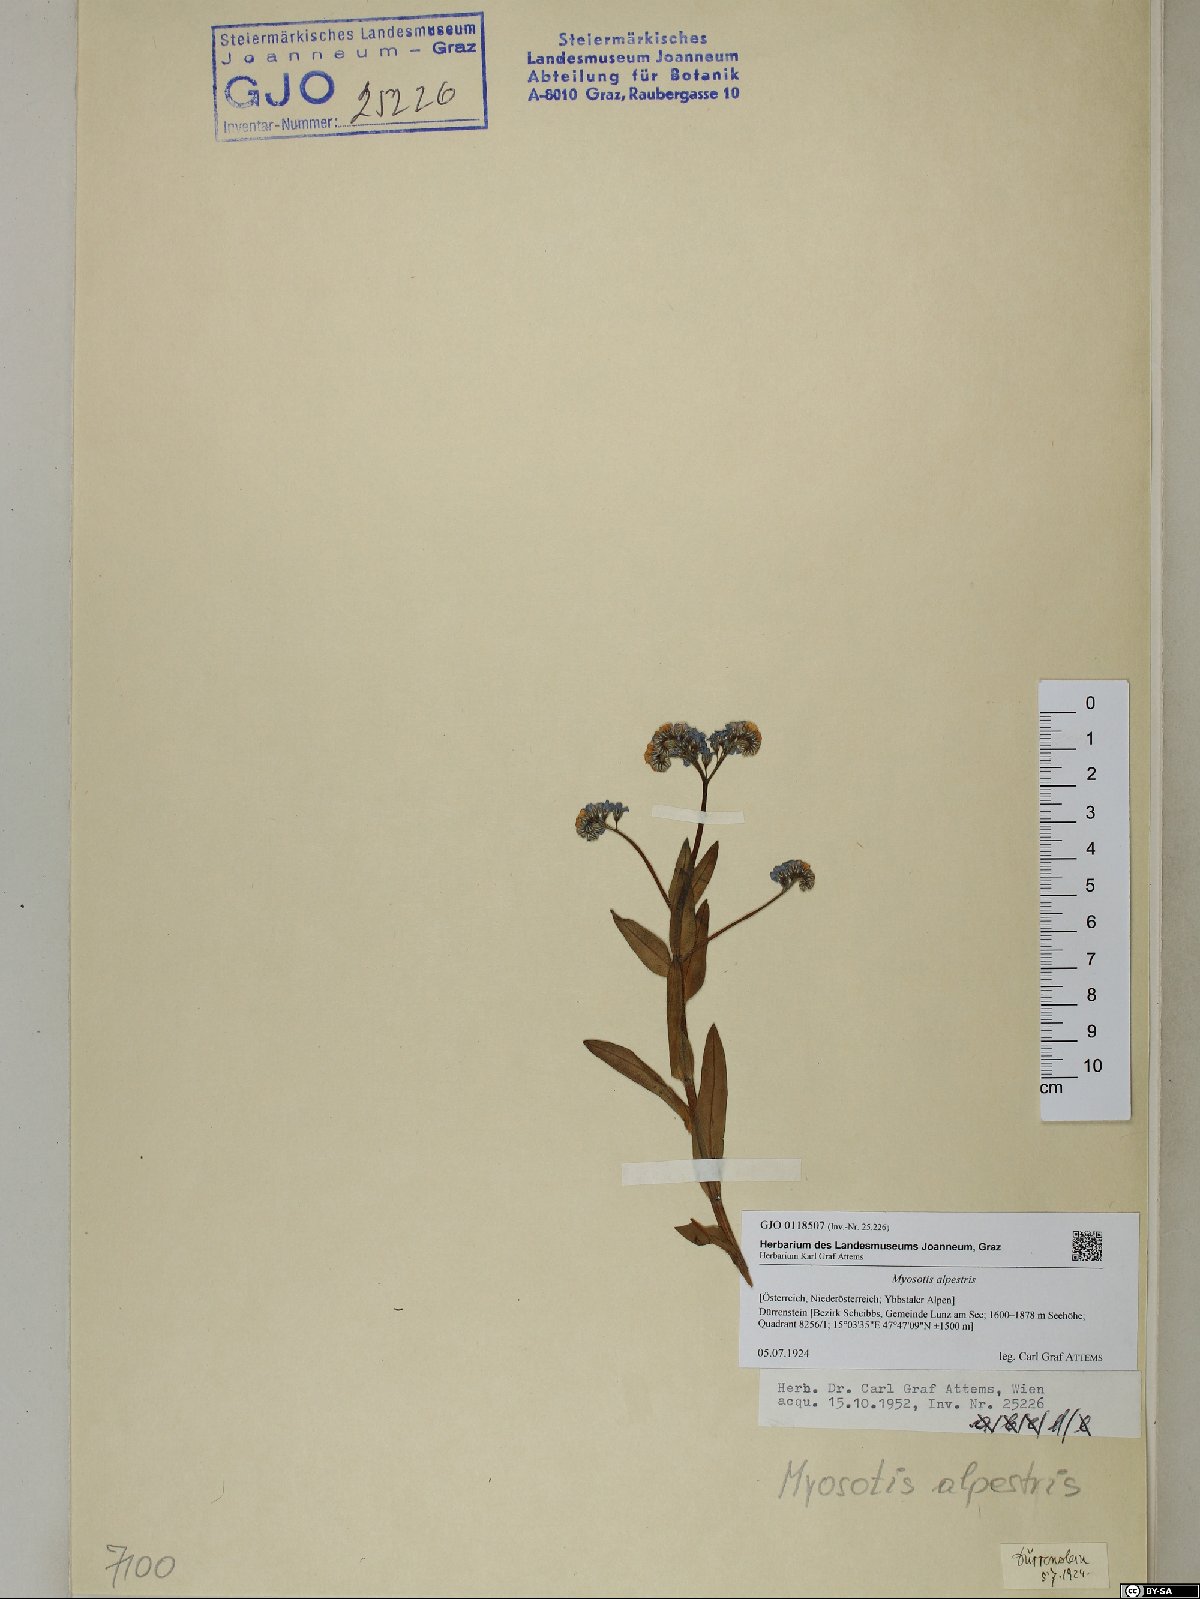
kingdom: Plantae
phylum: Tracheophyta
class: Magnoliopsida
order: Boraginales
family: Boraginaceae
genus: Myosotis
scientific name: Myosotis alpestris
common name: Alpine forget-me-not
